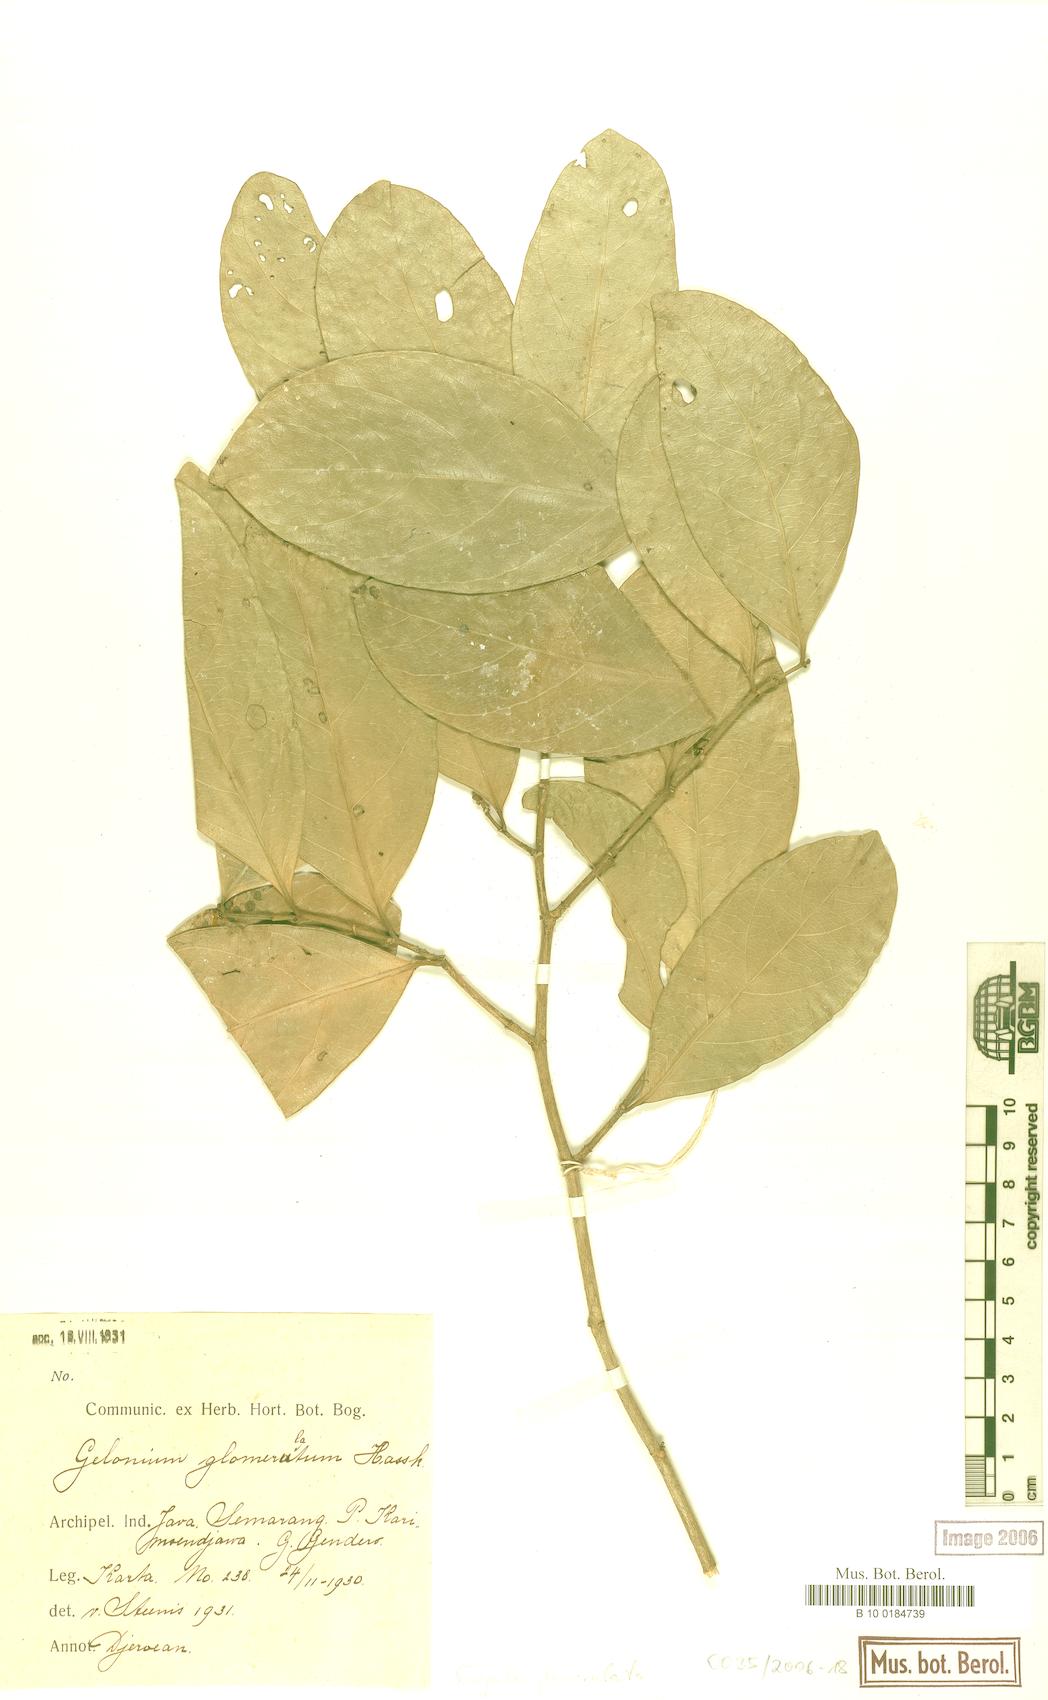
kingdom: Plantae
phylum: Tracheophyta
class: Magnoliopsida
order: Malpighiales
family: Euphorbiaceae
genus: Suregada
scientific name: Suregada glomerulata
